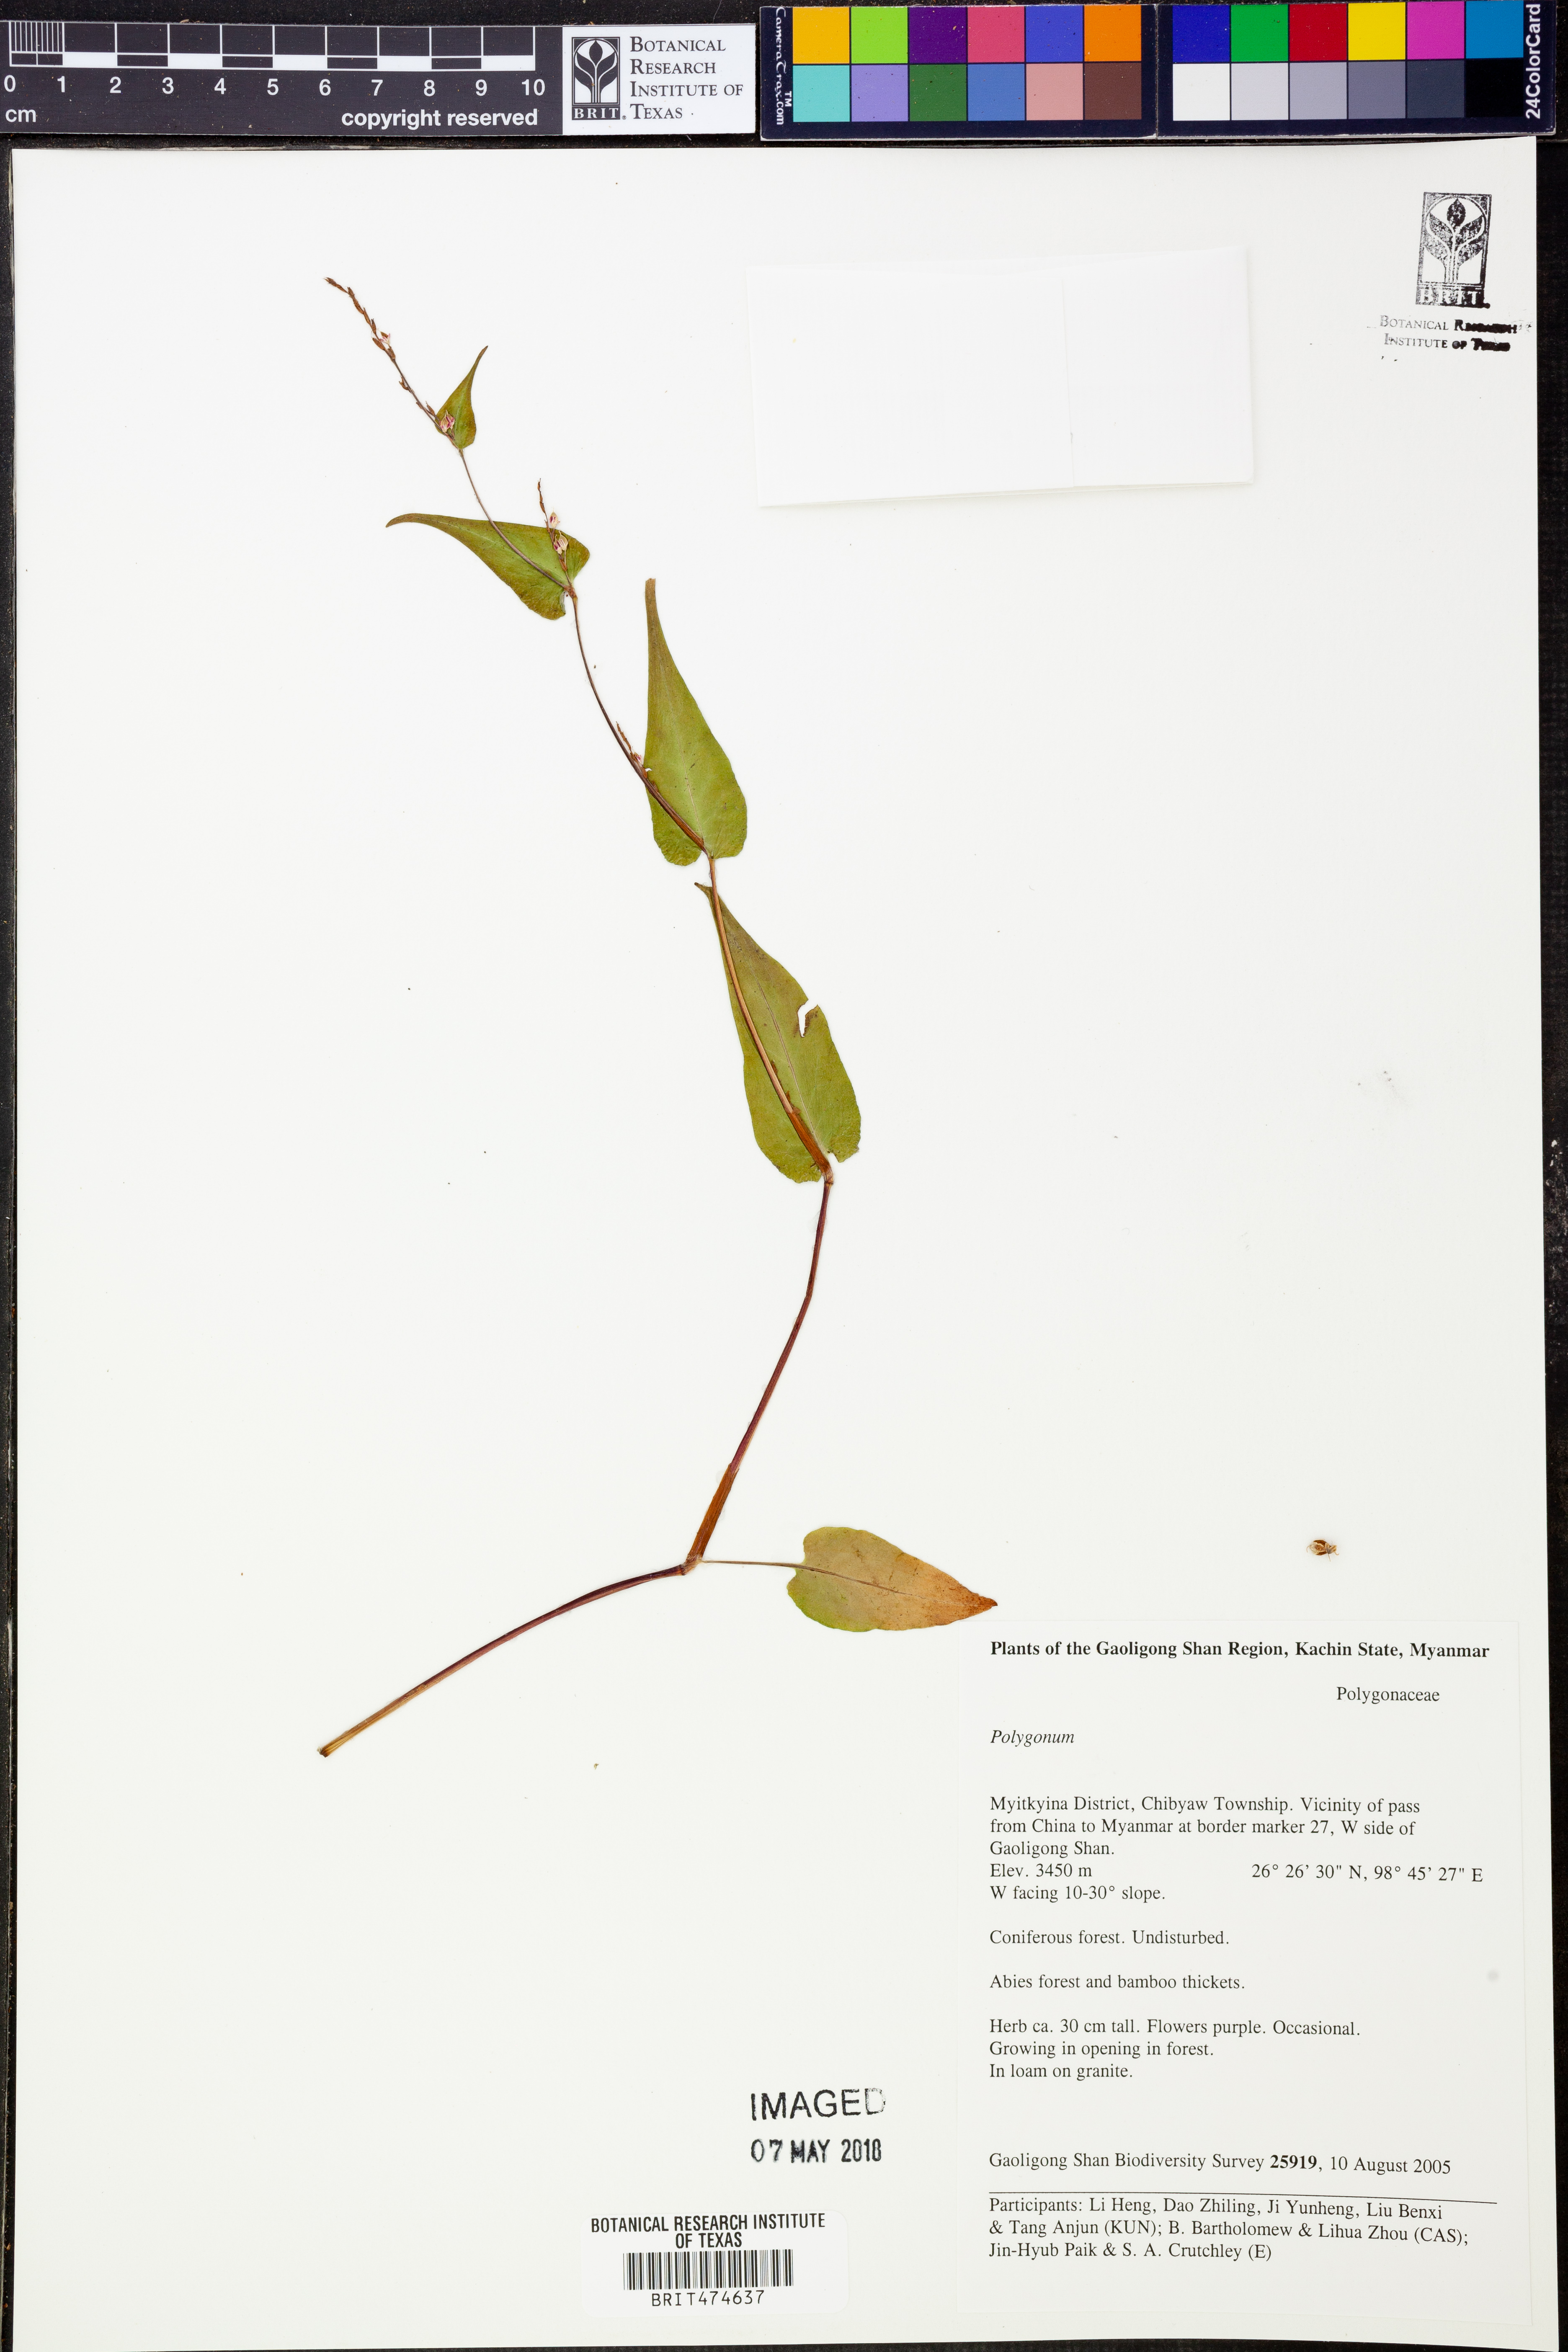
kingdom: Plantae
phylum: Tracheophyta
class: Magnoliopsida
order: Caryophyllales
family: Polygonaceae
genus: Polygonum
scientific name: Polygonum
